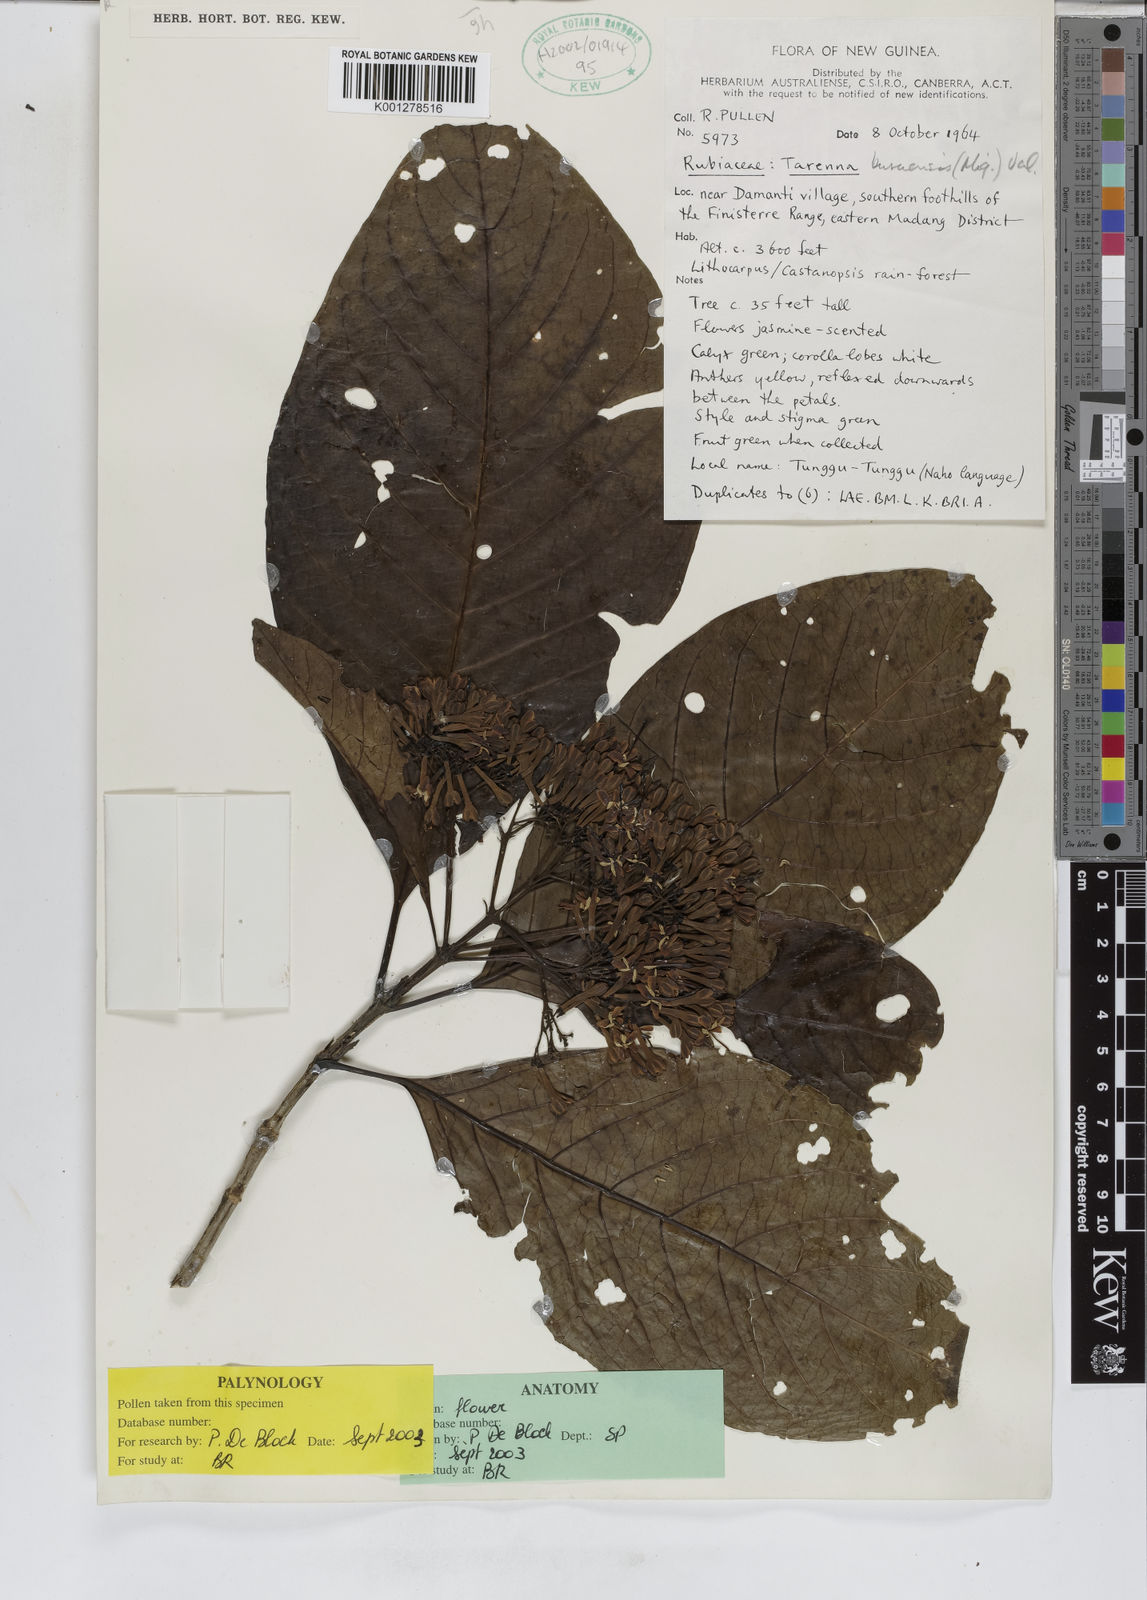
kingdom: Plantae
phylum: Tracheophyta
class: Magnoliopsida
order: Gentianales
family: Rubiaceae
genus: Tarenna
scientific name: Tarenna sambucina
